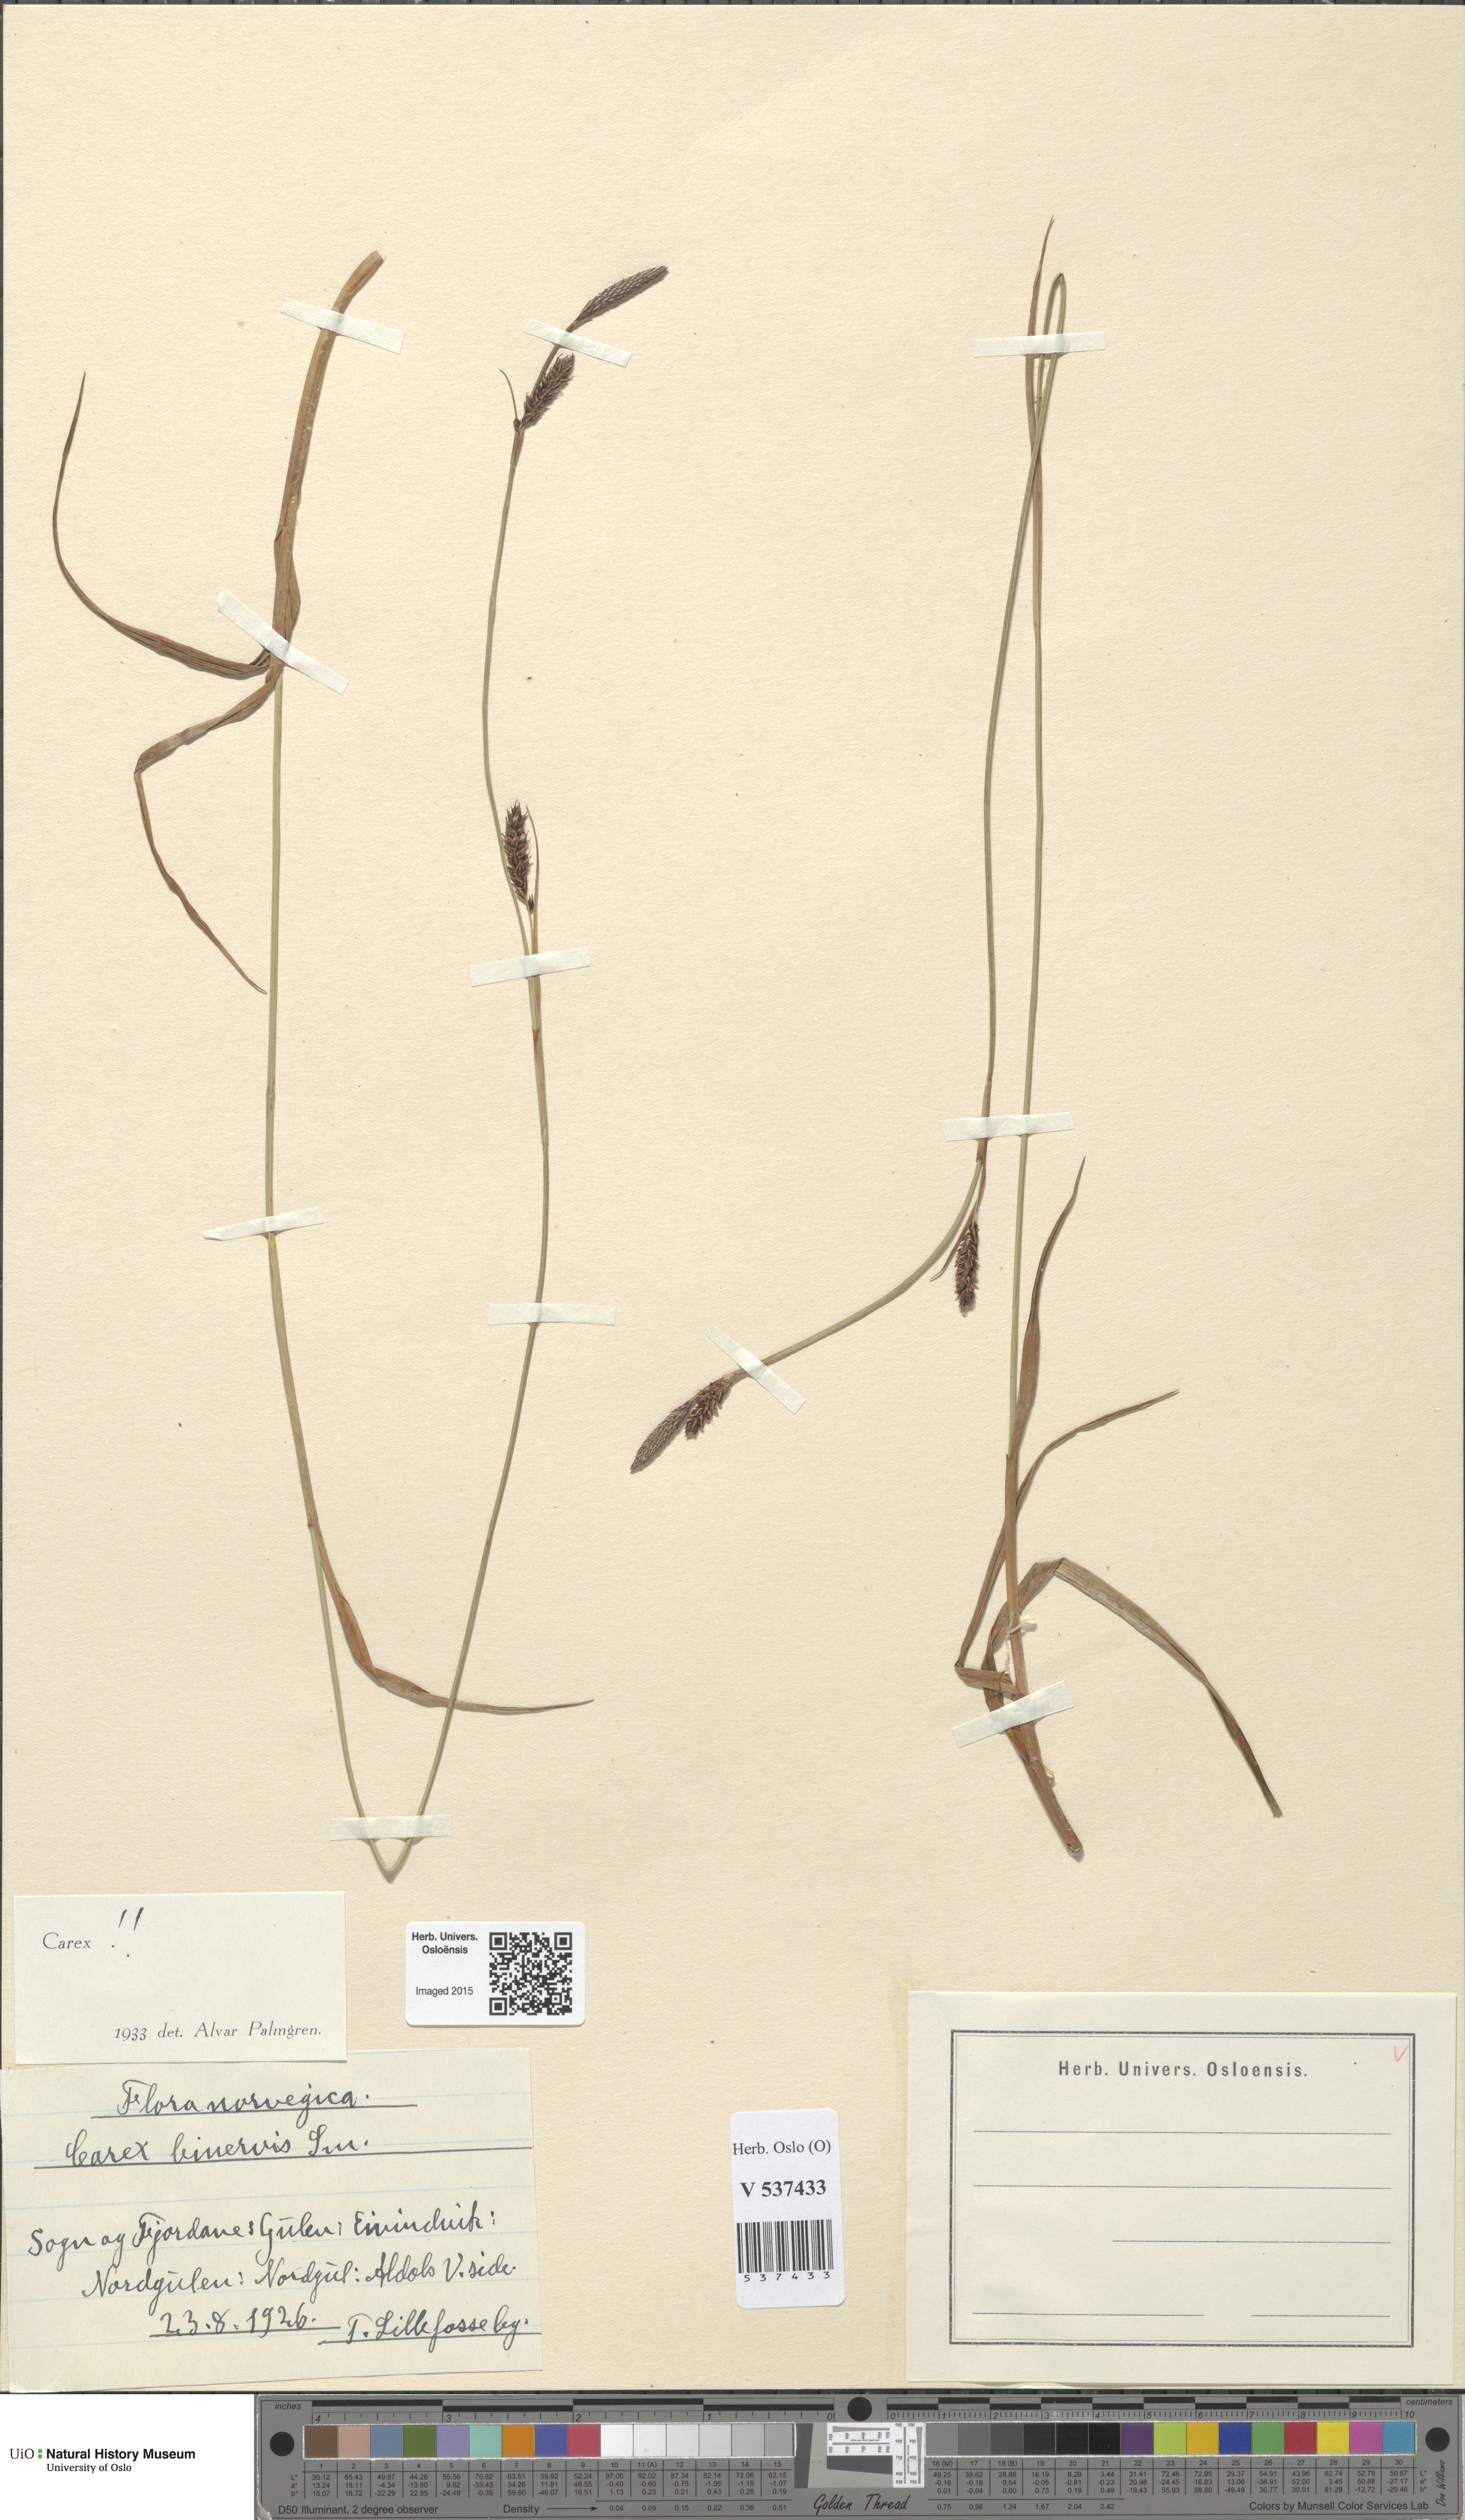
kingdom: Plantae
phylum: Tracheophyta
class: Liliopsida
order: Poales
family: Cyperaceae
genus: Carex
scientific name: Carex binervis
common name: Green-ribbed sedge
